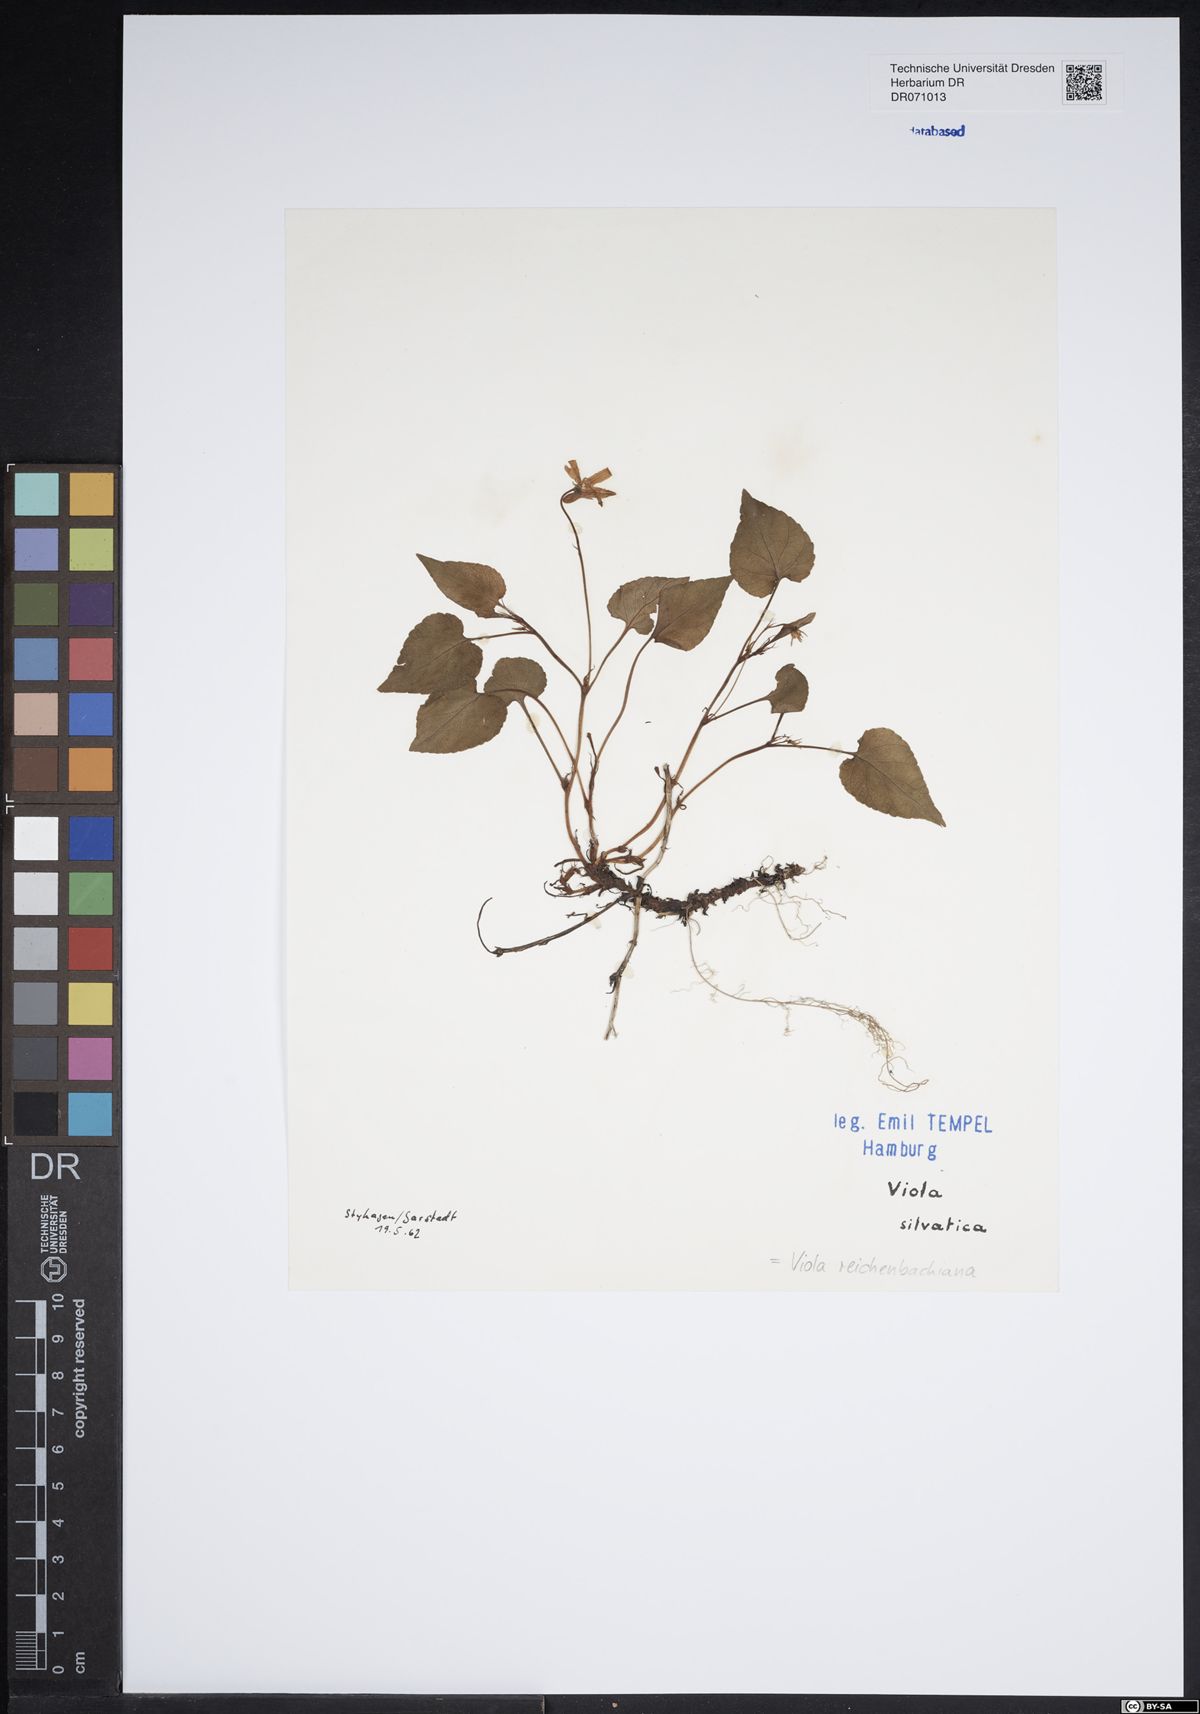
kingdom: Plantae
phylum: Tracheophyta
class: Magnoliopsida
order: Malpighiales
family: Violaceae
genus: Viola
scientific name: Viola reichenbachiana
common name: Early dog-violet
